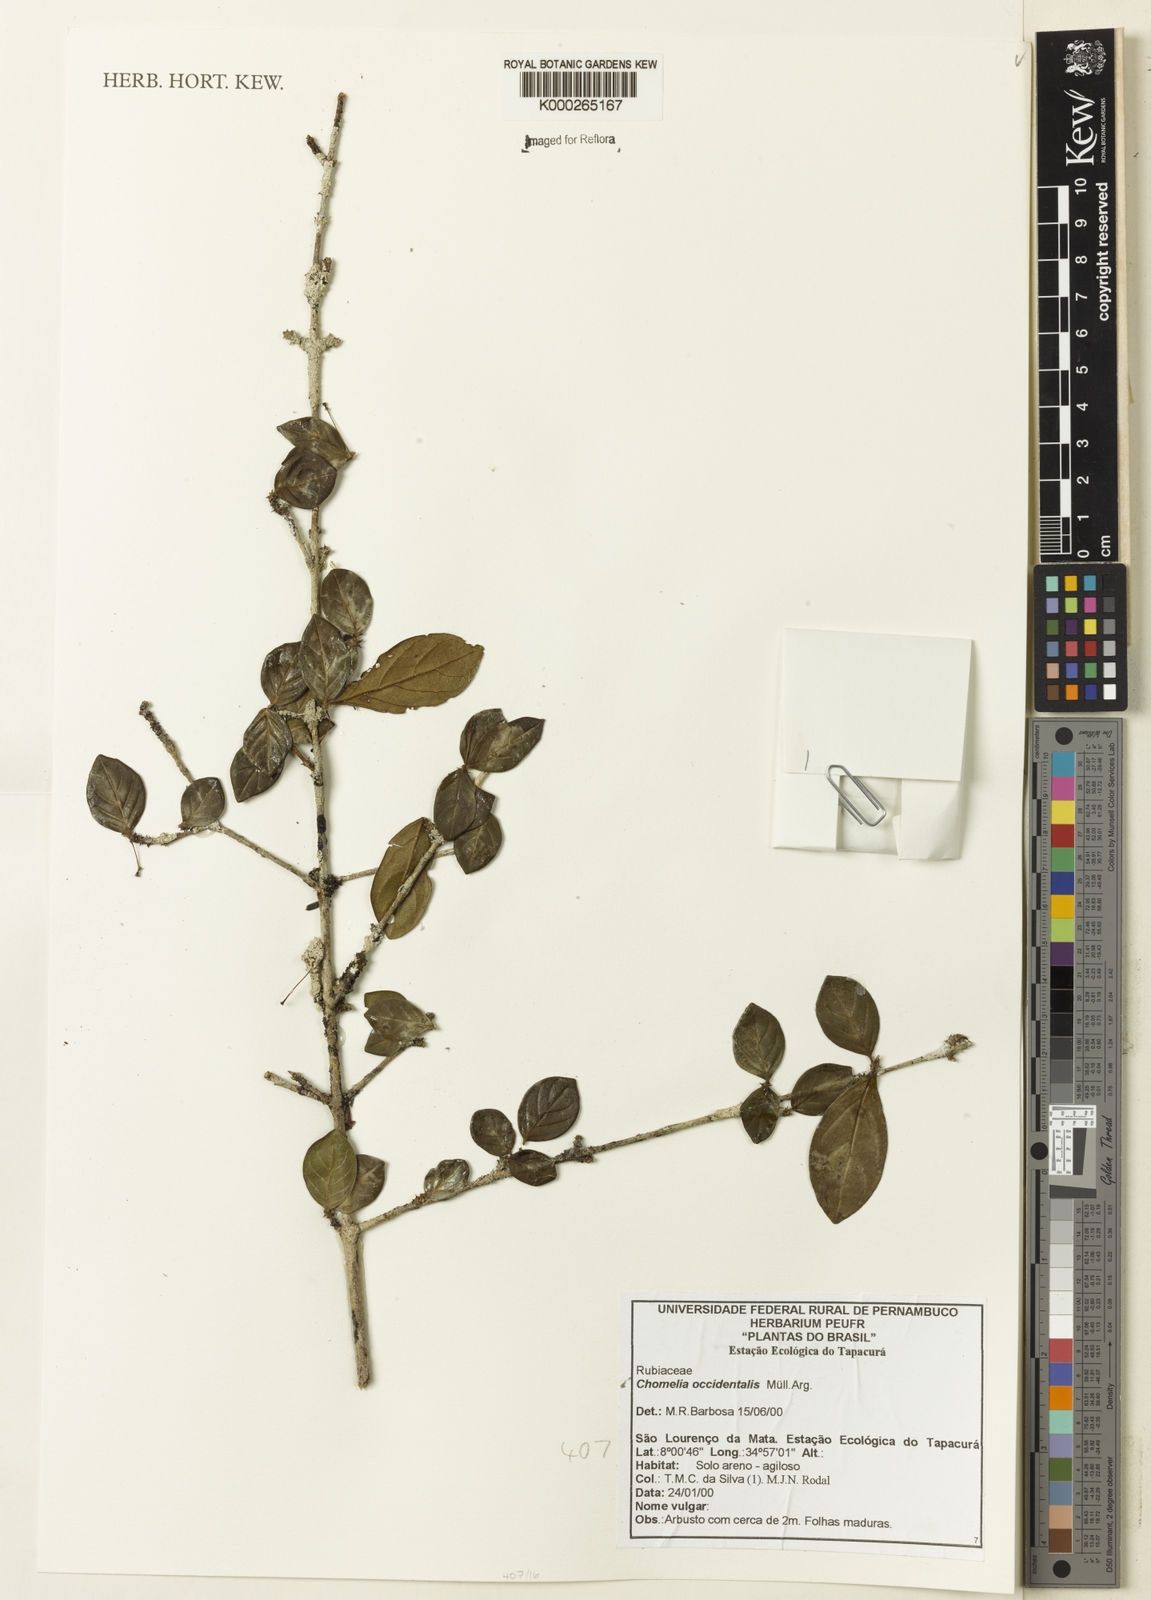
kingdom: Plantae
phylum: Tracheophyta
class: Magnoliopsida
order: Gentianales
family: Rubiaceae
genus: Chomelia
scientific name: Chomelia
